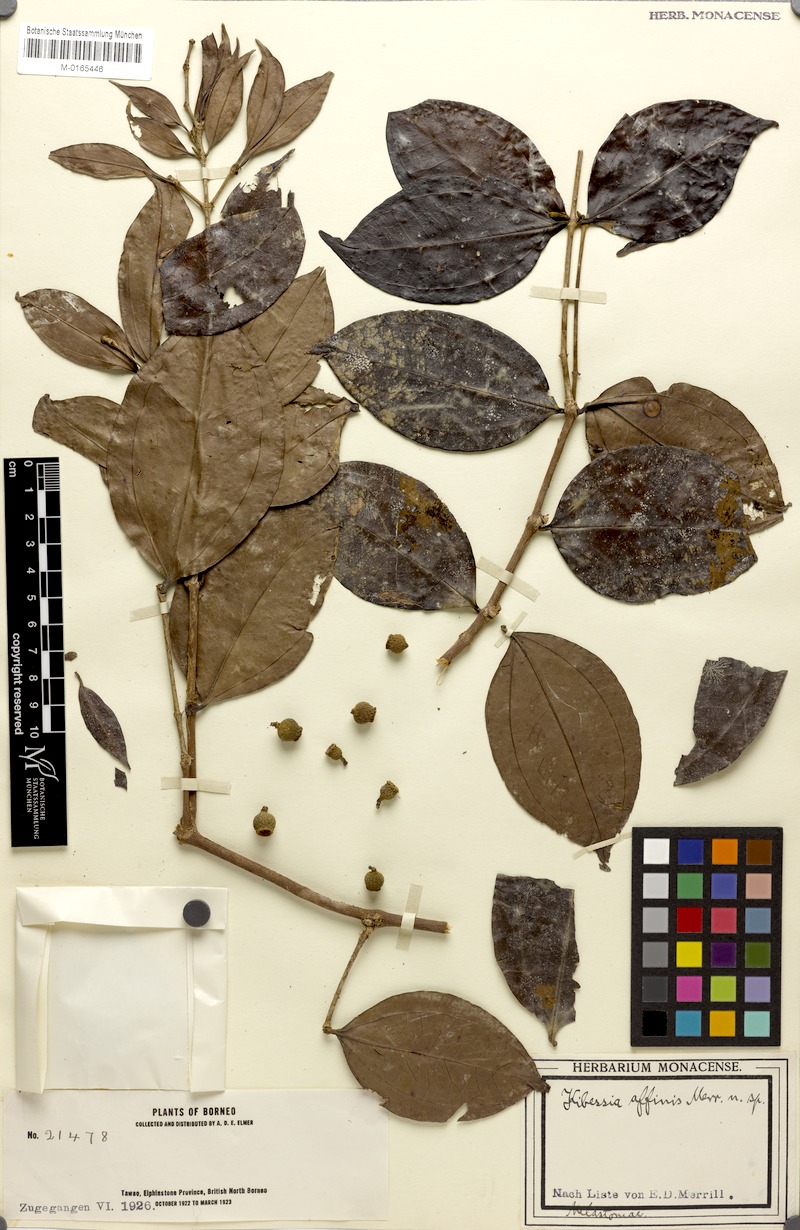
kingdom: Plantae
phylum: Tracheophyta
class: Magnoliopsida
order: Myrtales
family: Melastomataceae
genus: Pternandra
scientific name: Pternandra rostrata
